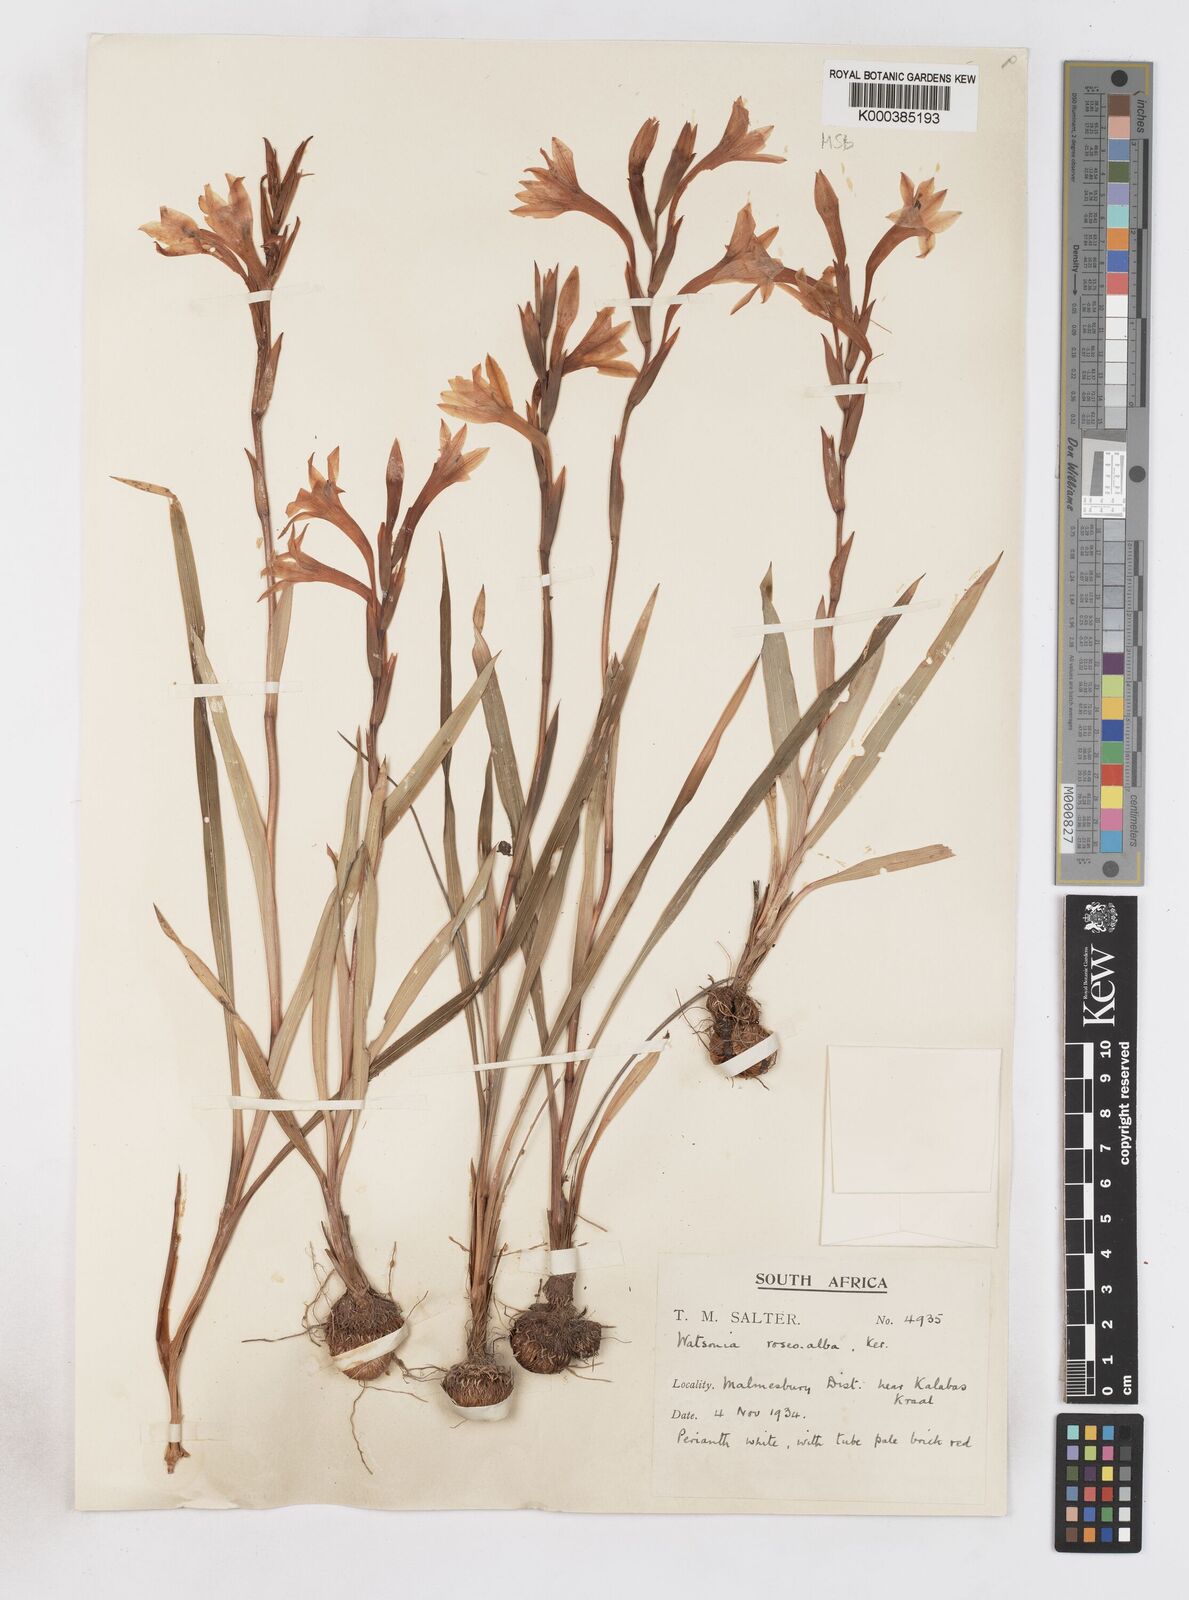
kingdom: Plantae
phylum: Tracheophyta
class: Liliopsida
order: Asparagales
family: Iridaceae
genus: Watsonia
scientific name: Watsonia humilis
